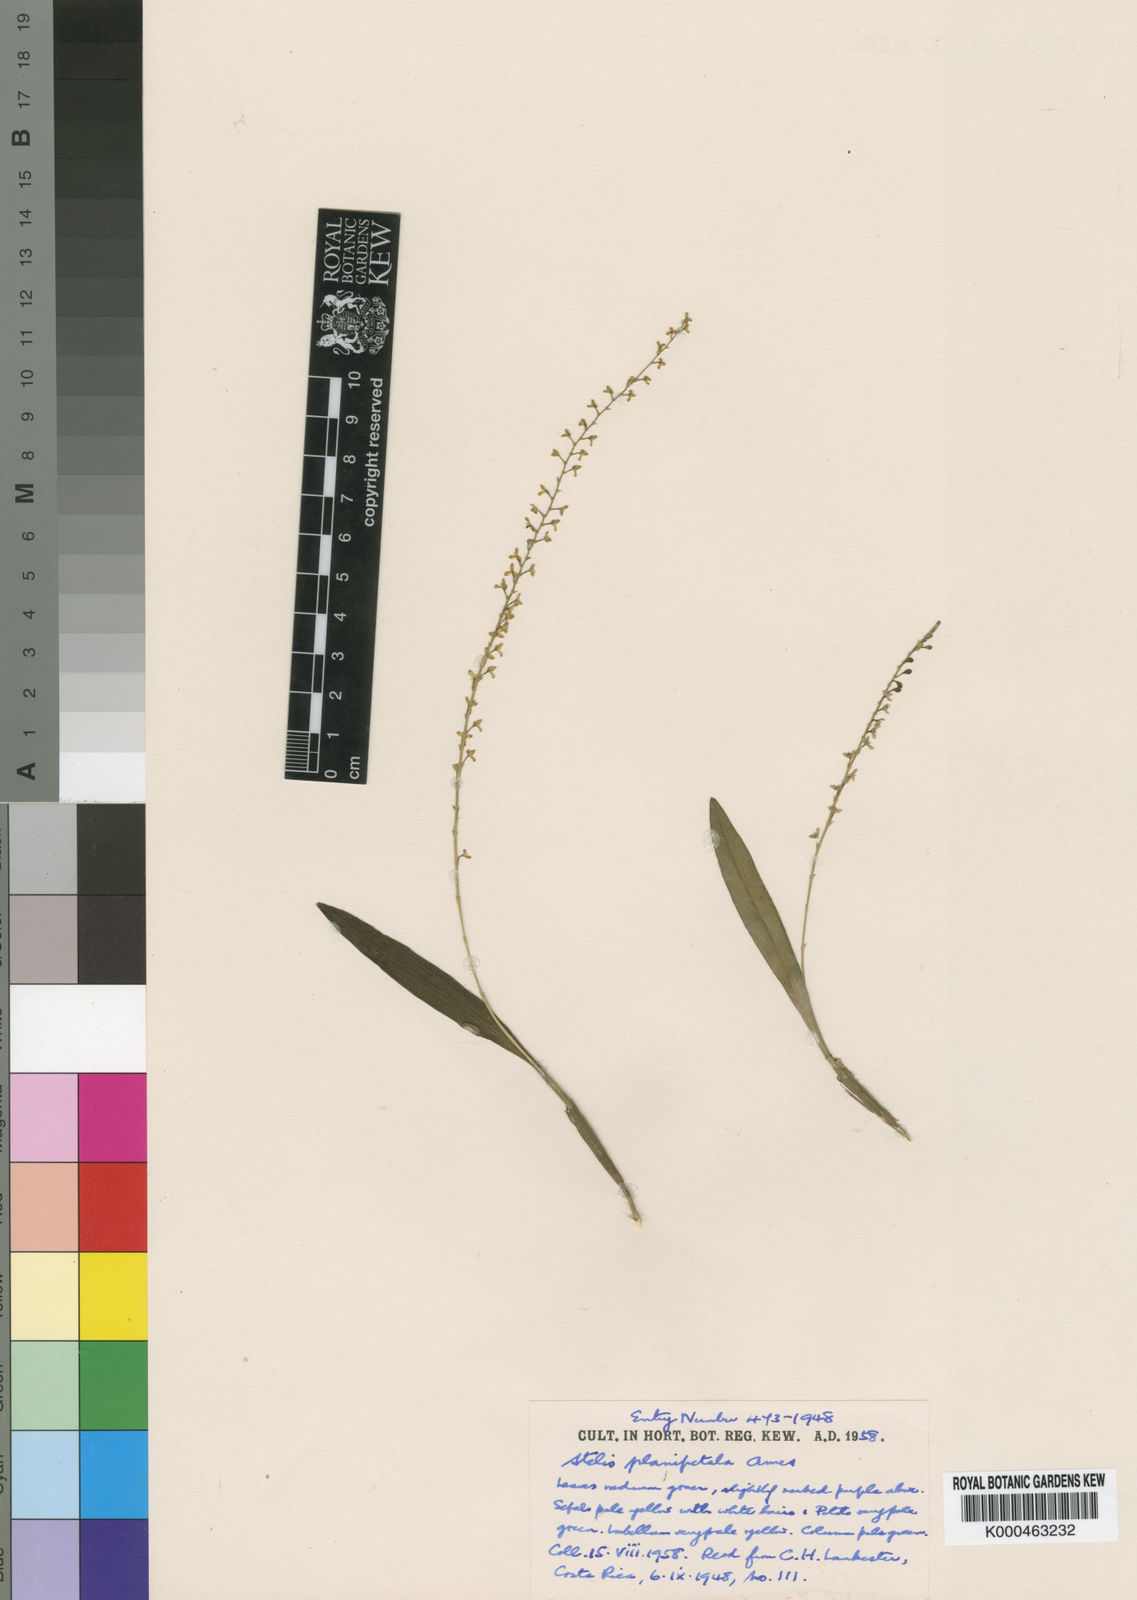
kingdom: Plantae
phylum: Tracheophyta
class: Liliopsida
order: Asparagales
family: Orchidaceae
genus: Stelis
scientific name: Stelis
